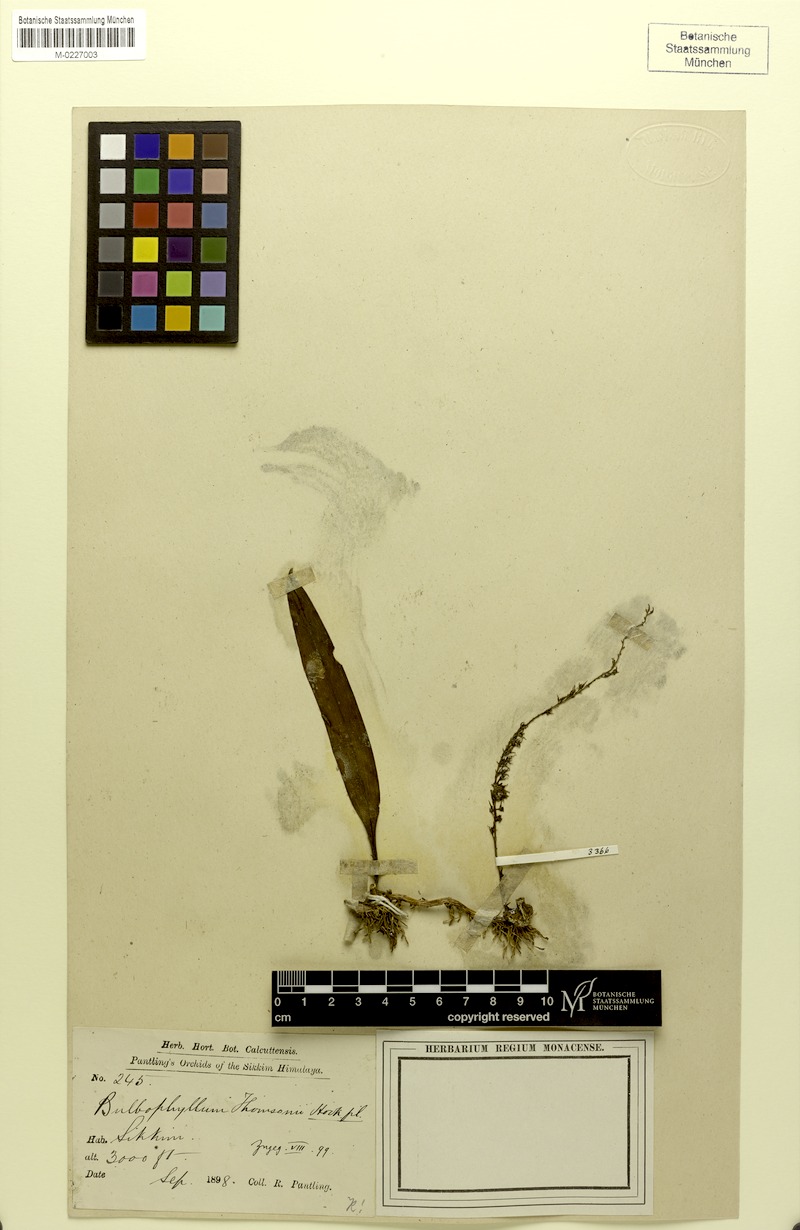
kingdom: Plantae
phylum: Tracheophyta
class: Liliopsida
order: Asparagales
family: Orchidaceae
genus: Bulbophyllum
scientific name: Bulbophyllum parviflorum
